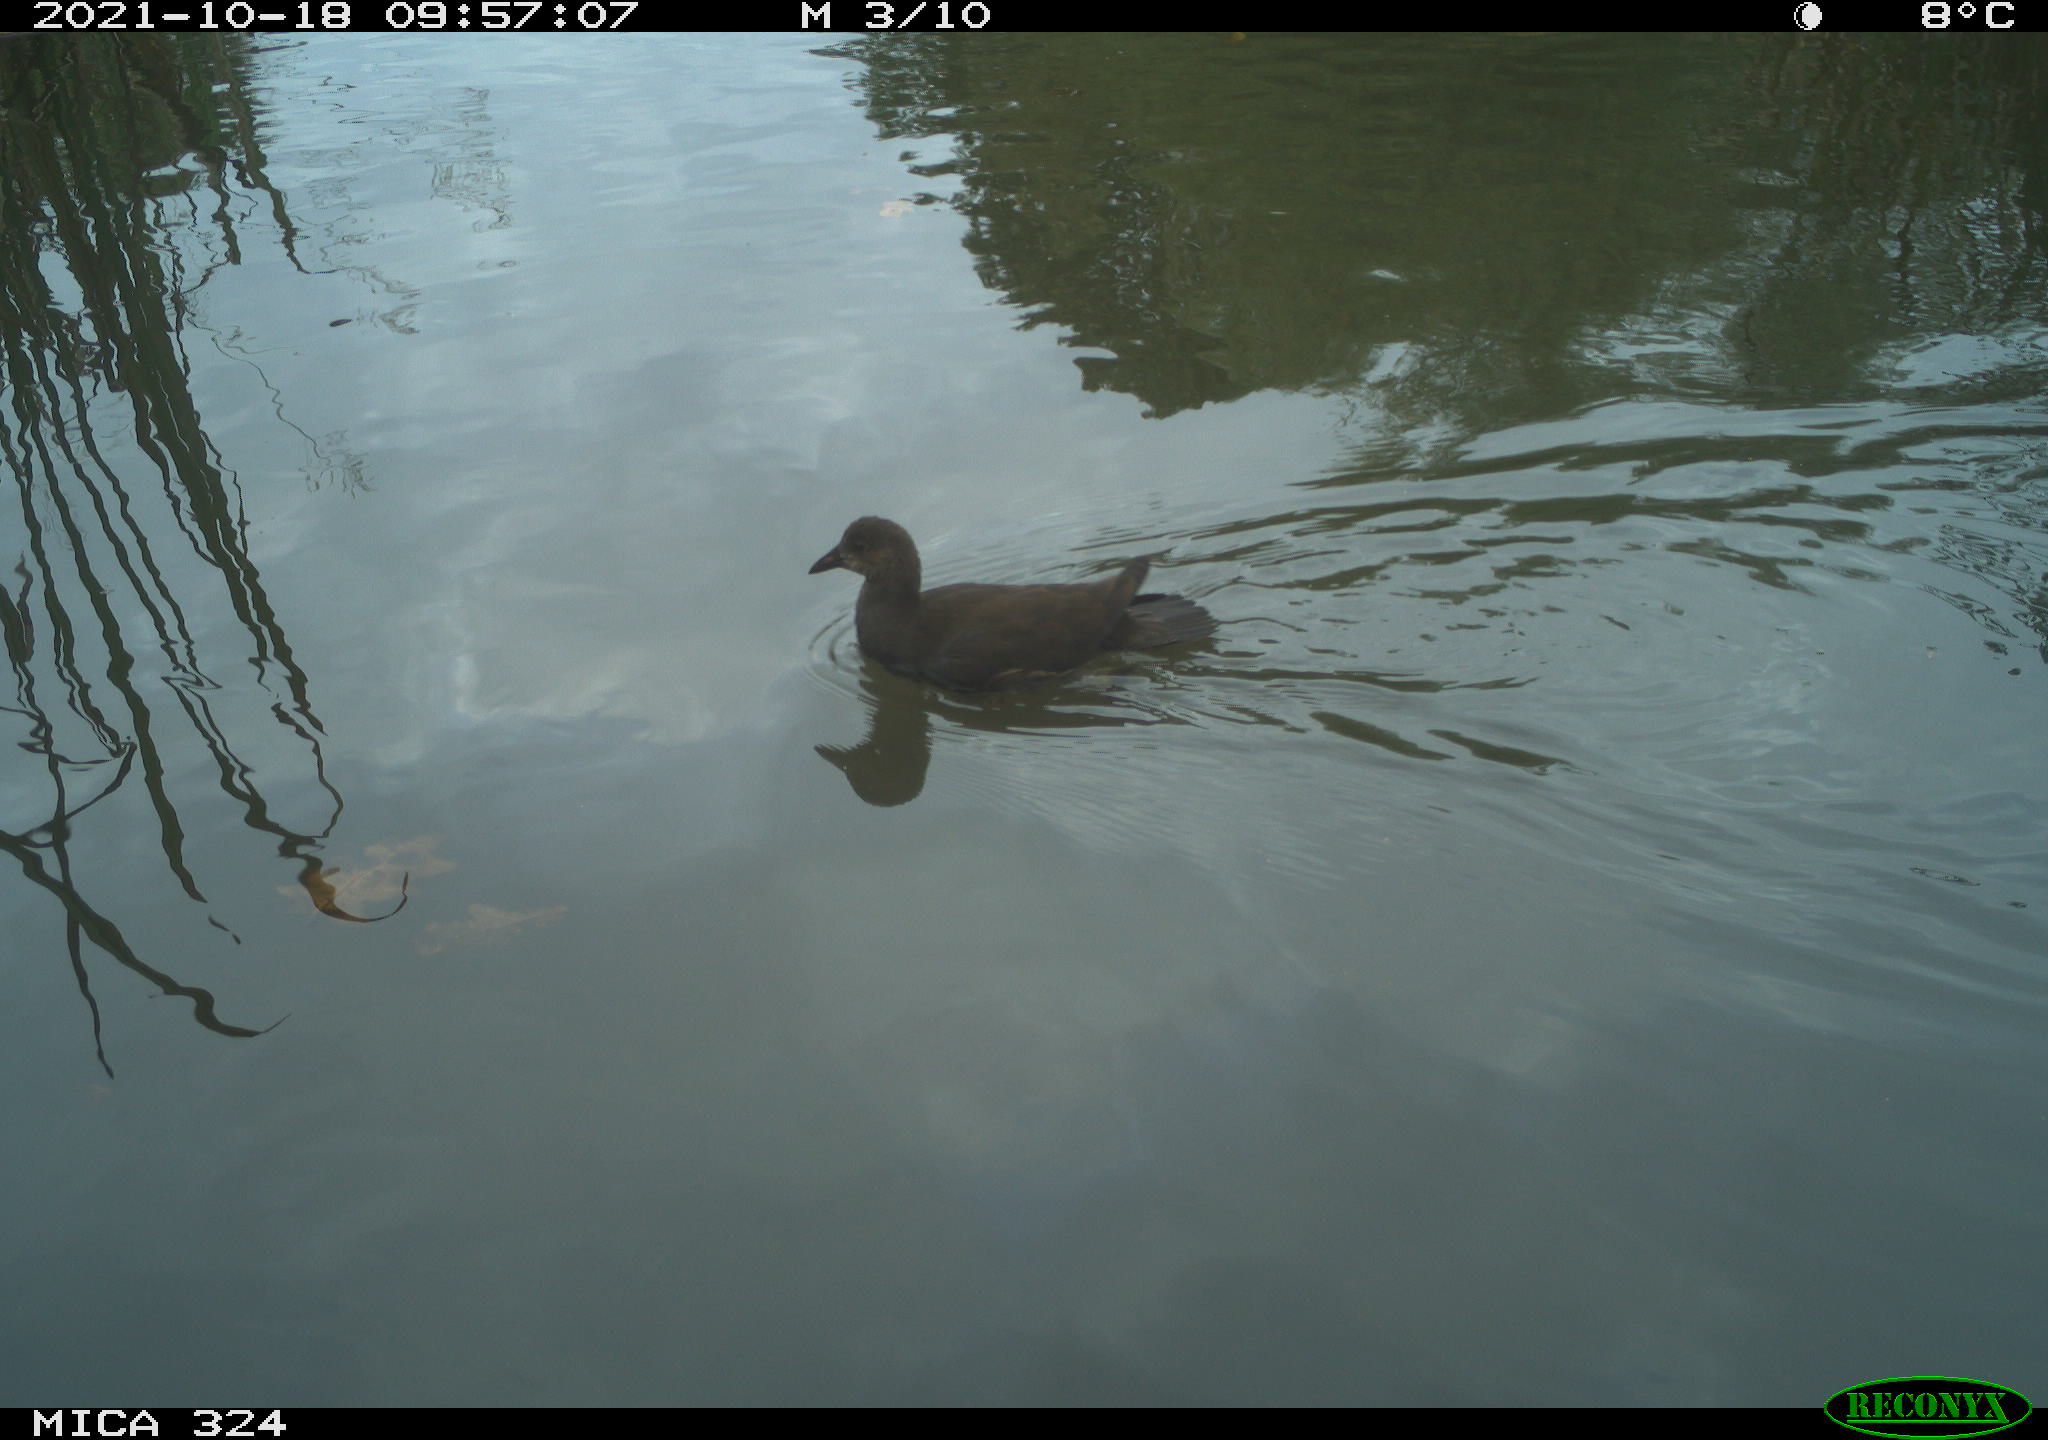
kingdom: Animalia
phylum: Chordata
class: Aves
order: Gruiformes
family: Rallidae
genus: Gallinula
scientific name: Gallinula chloropus
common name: Common moorhen
